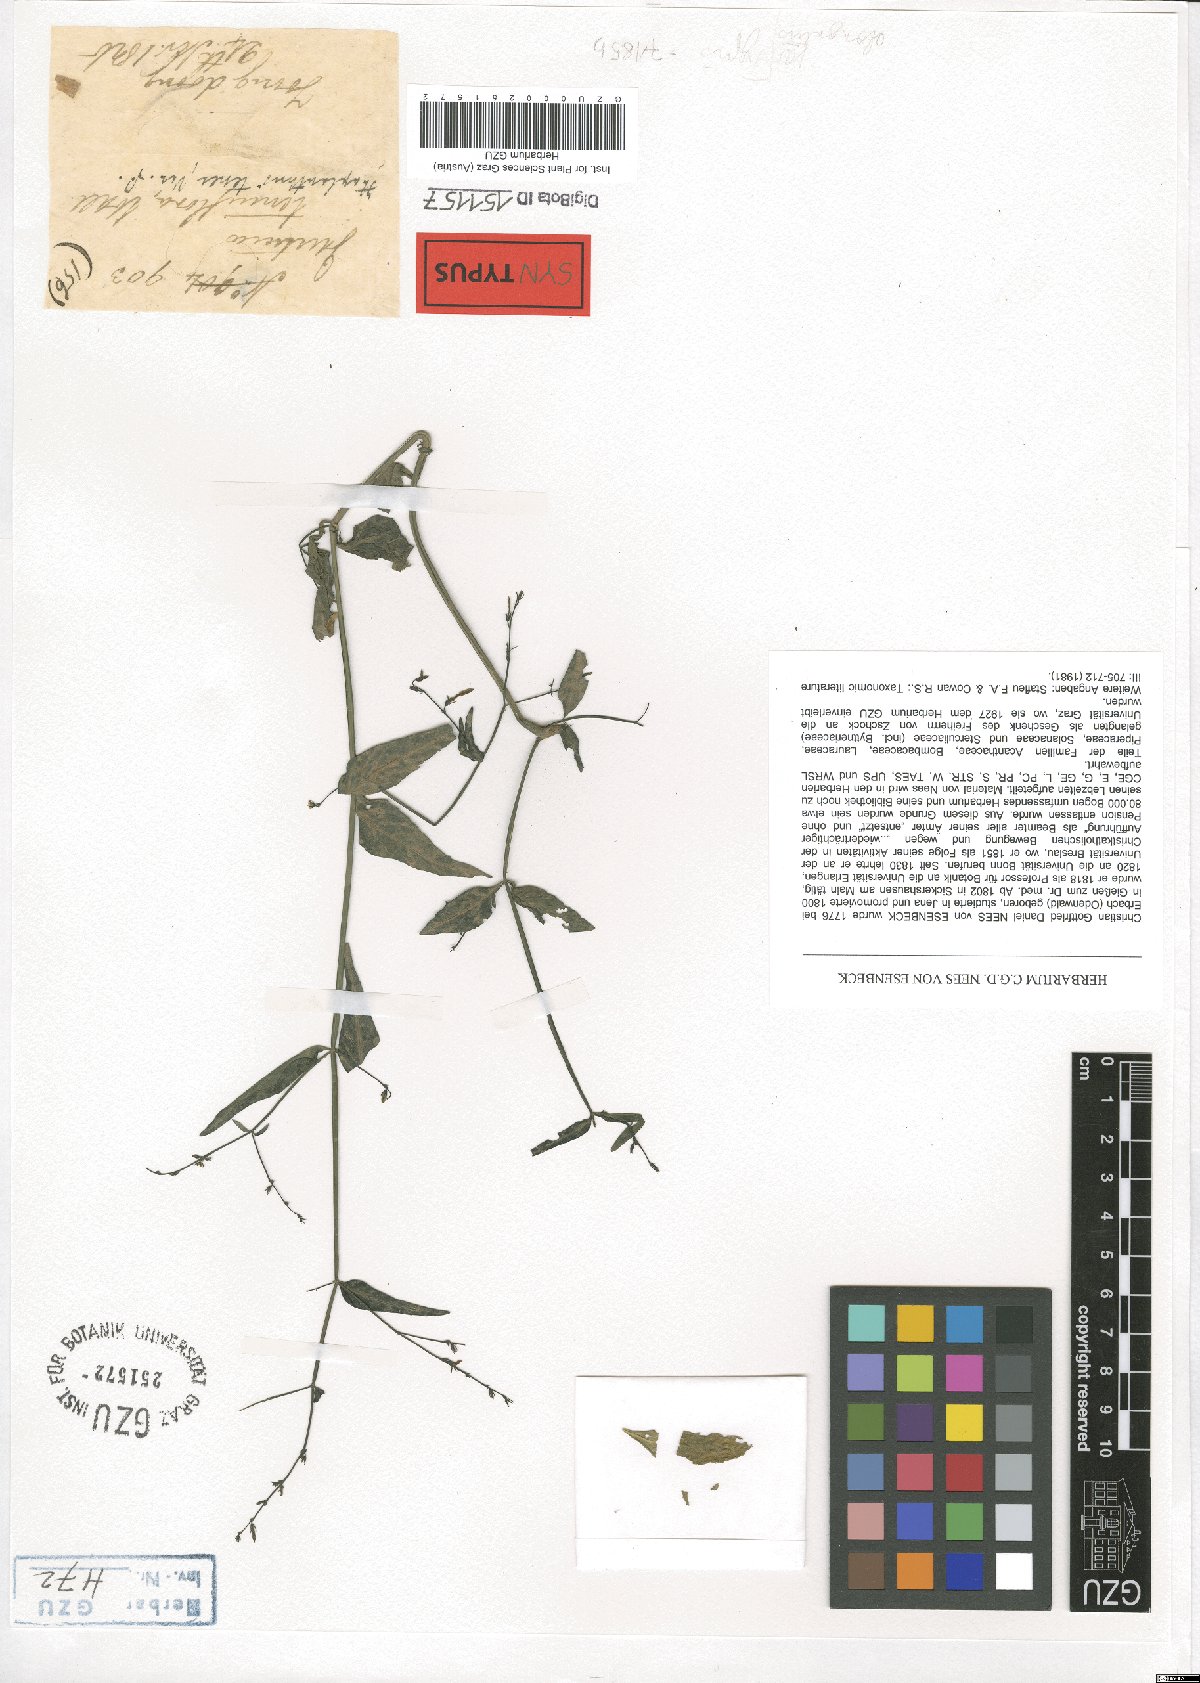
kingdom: Plantae
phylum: Tracheophyta
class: Magnoliopsida
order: Lamiales
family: Acanthaceae
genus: Haplanthus
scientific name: Haplanthus laxiflorus
